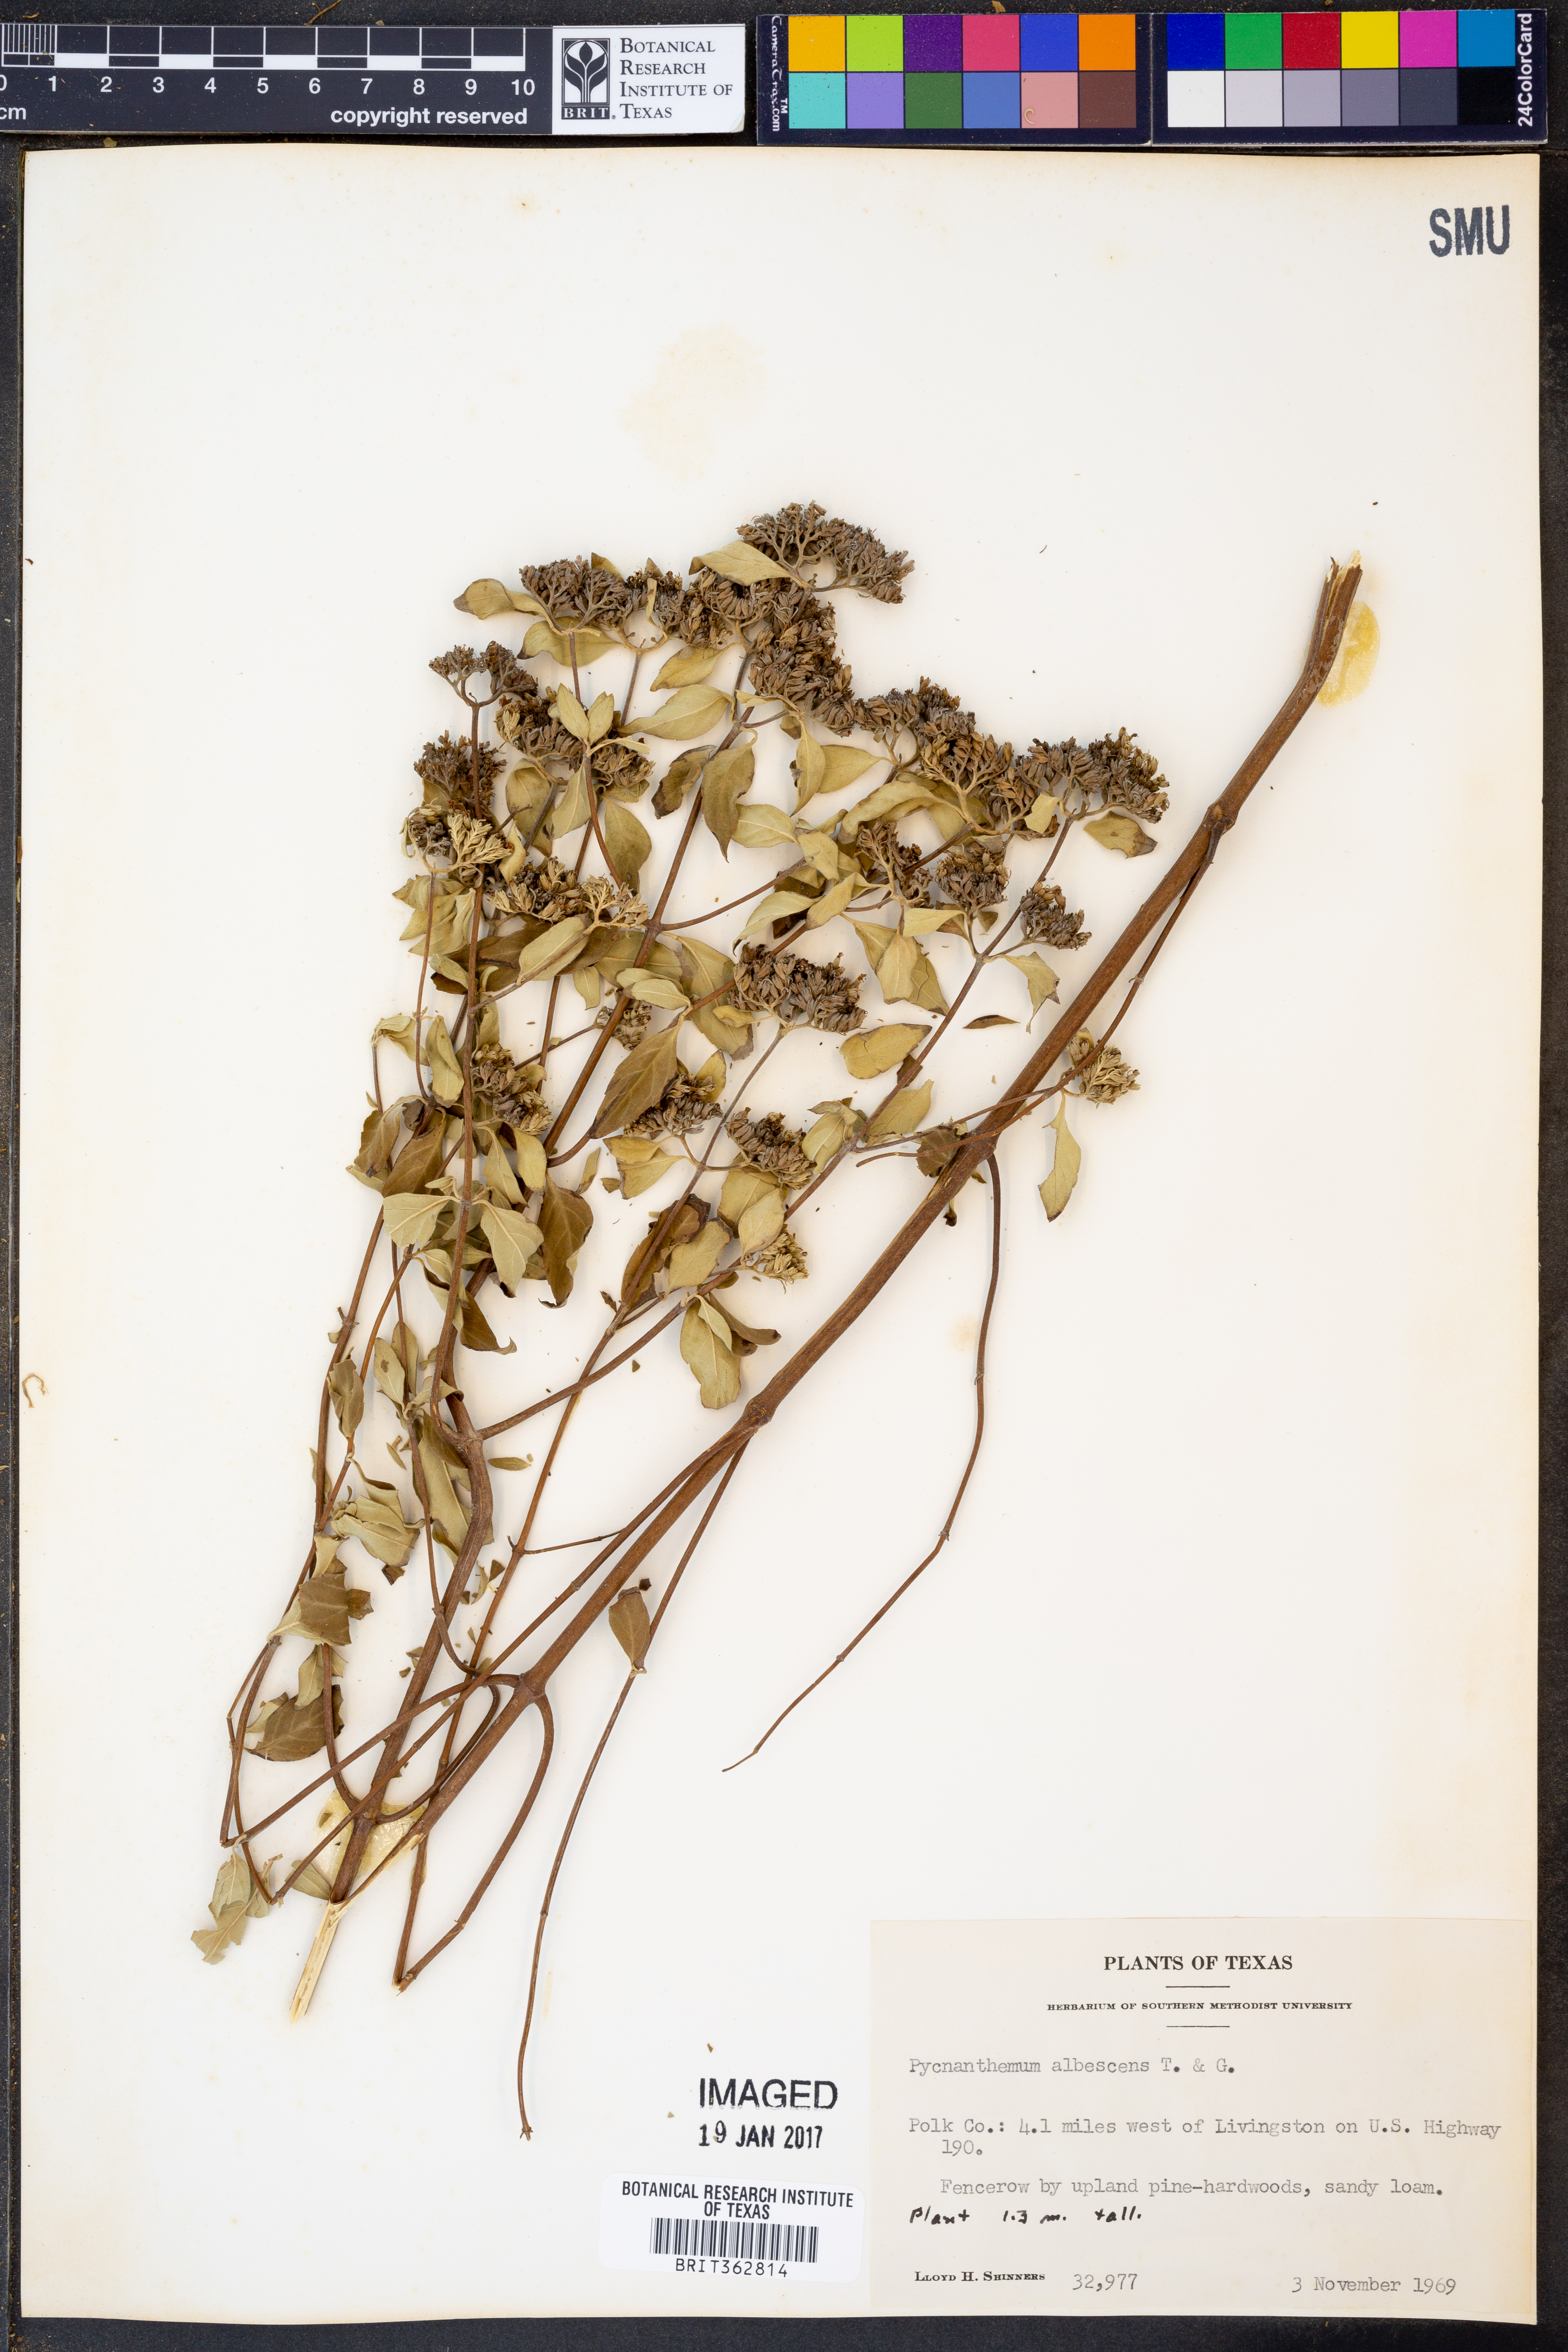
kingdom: Plantae
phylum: Tracheophyta
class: Magnoliopsida
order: Lamiales
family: Lamiaceae
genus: Pycnanthemum
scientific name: Pycnanthemum albescens
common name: White-leaf mountain-mint
